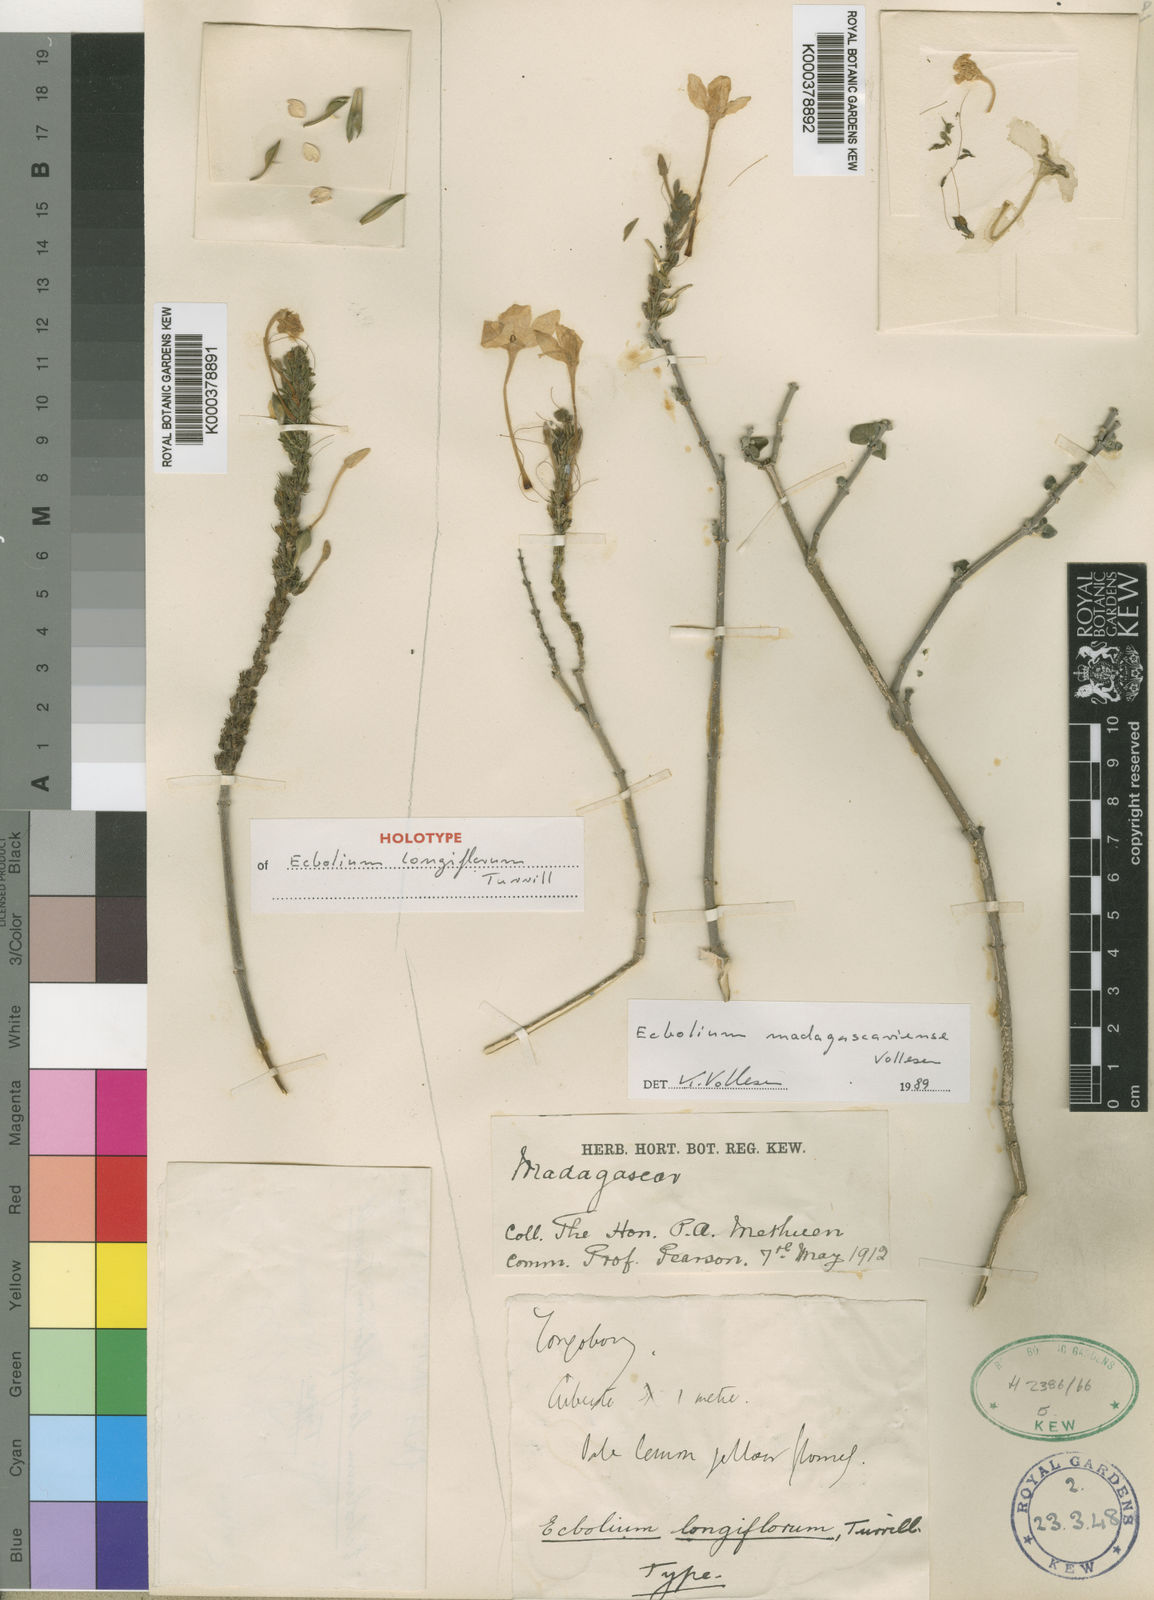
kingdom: Plantae
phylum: Tracheophyta
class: Magnoliopsida
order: Lamiales
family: Acanthaceae
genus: Ecbolium
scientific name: Ecbolium madagascariense
